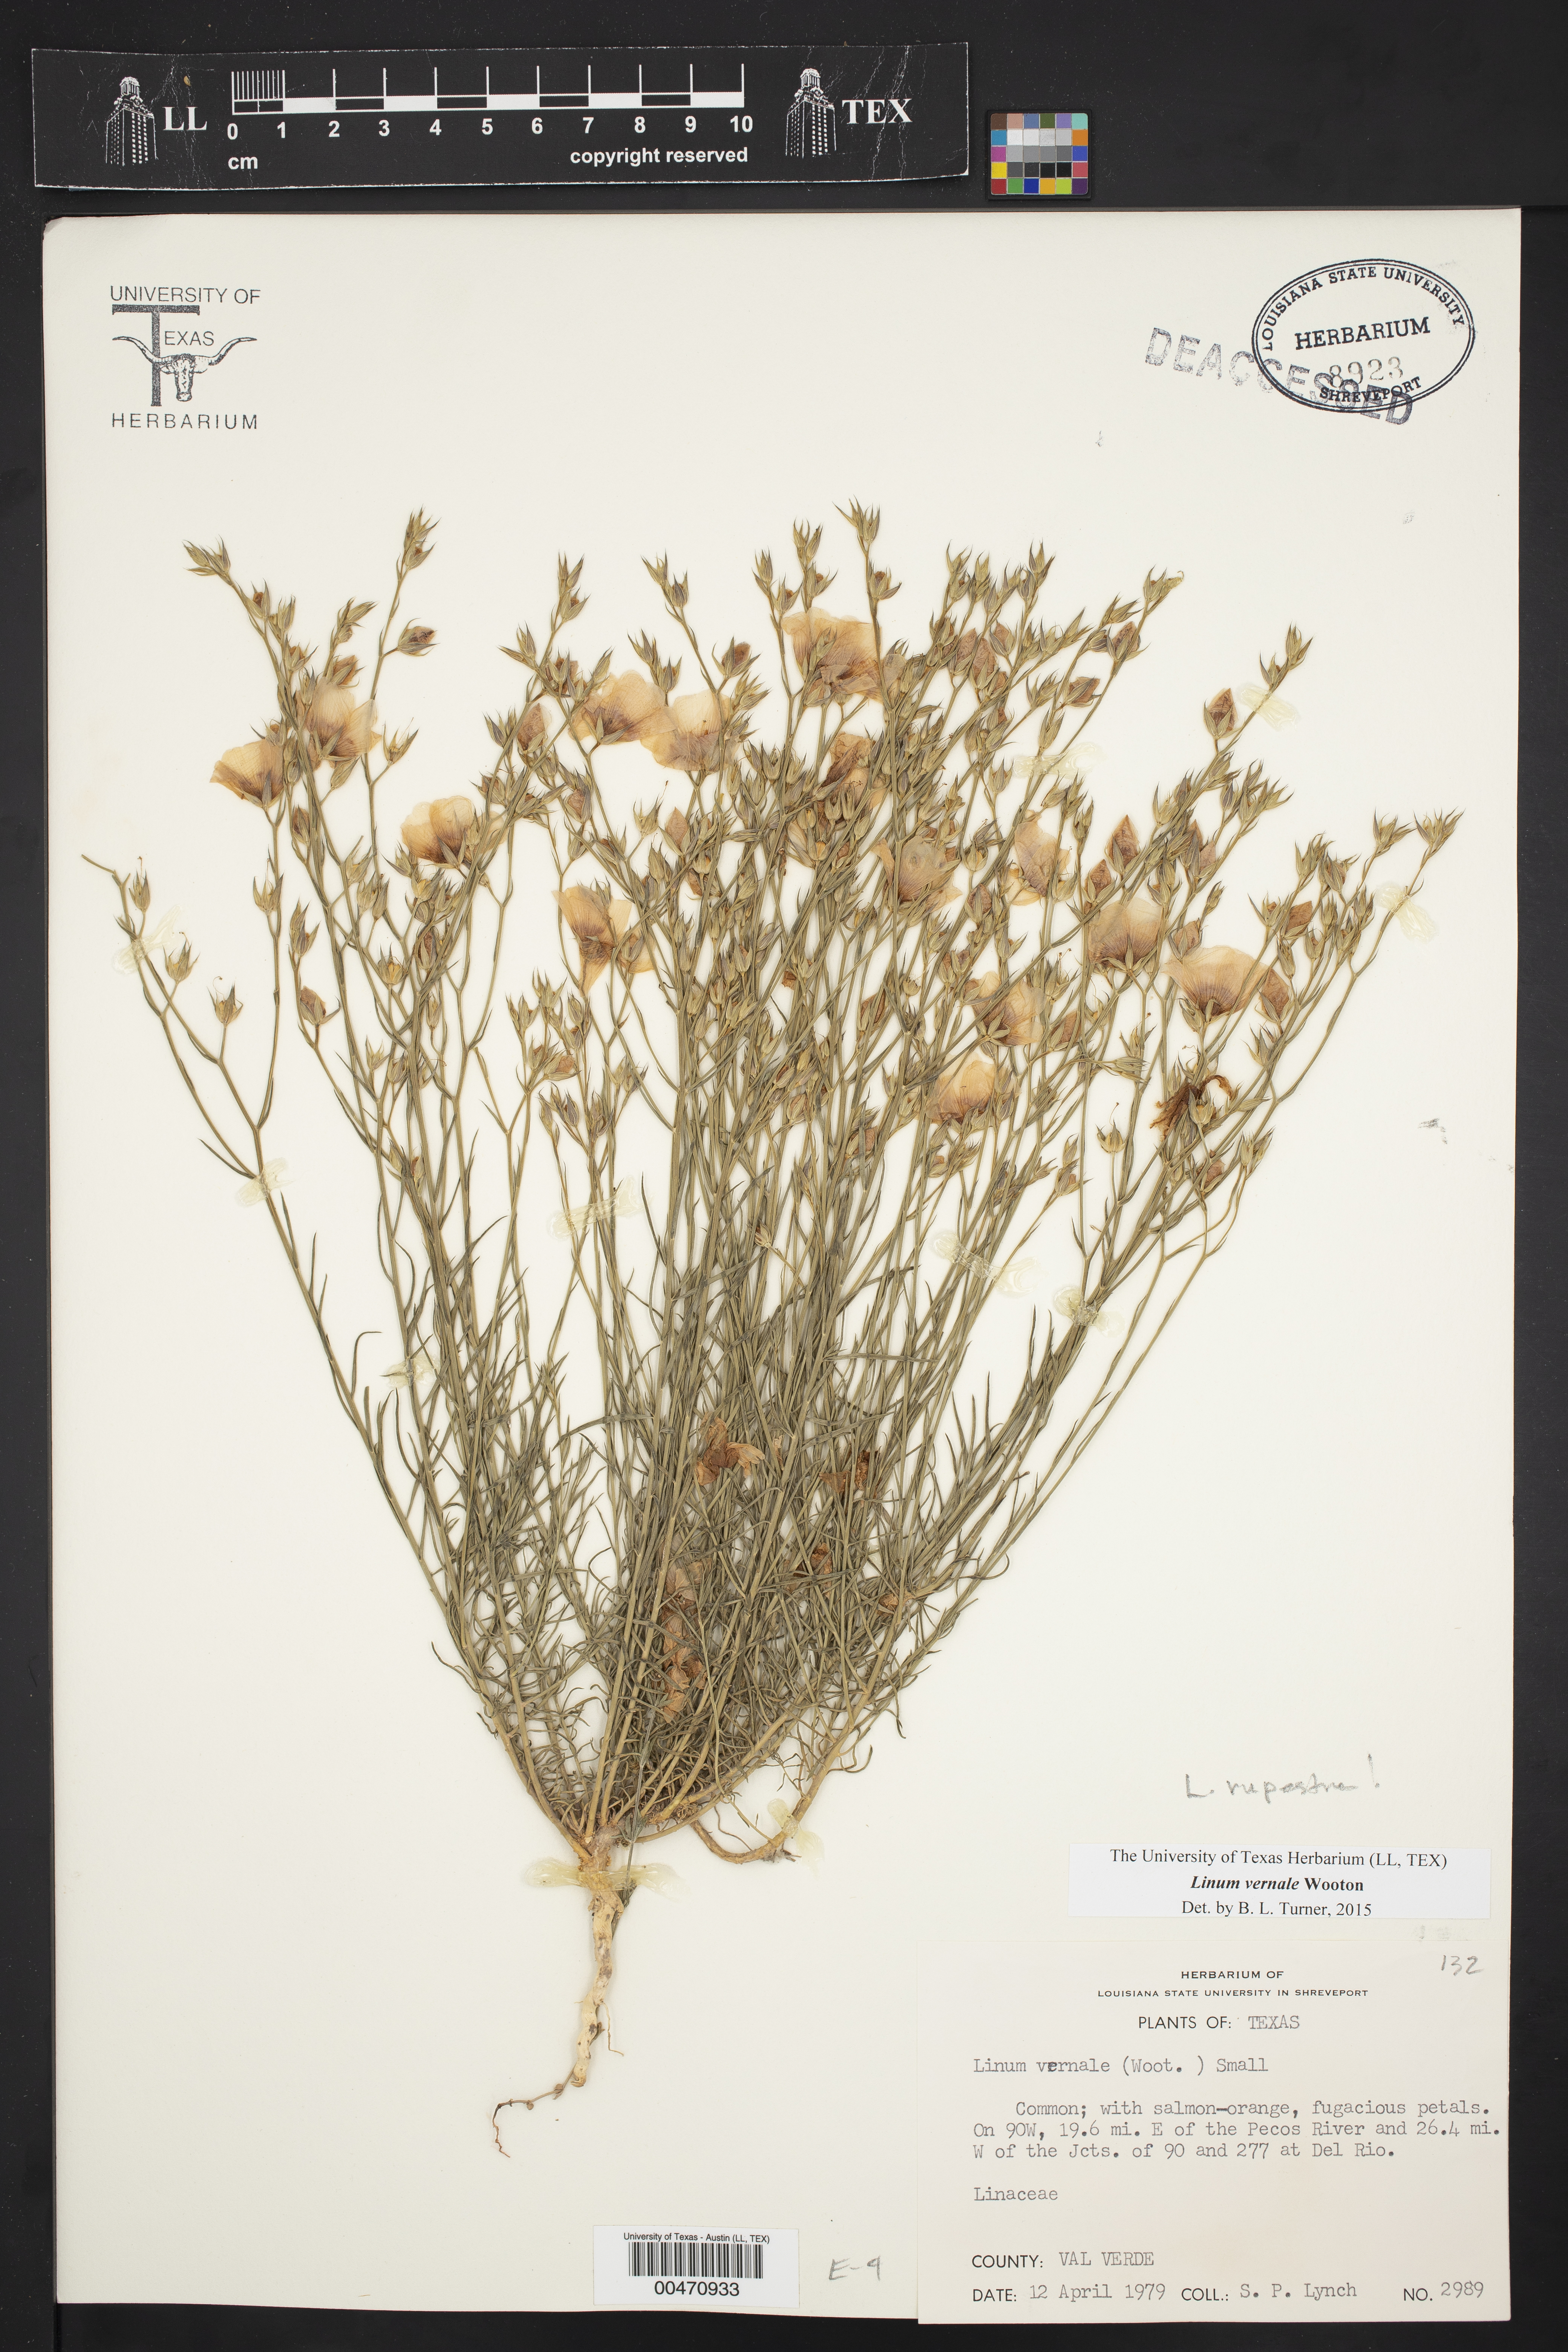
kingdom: Plantae
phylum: Tracheophyta
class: Magnoliopsida
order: Malpighiales
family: Linaceae
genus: Linum
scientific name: Linum rupestre
